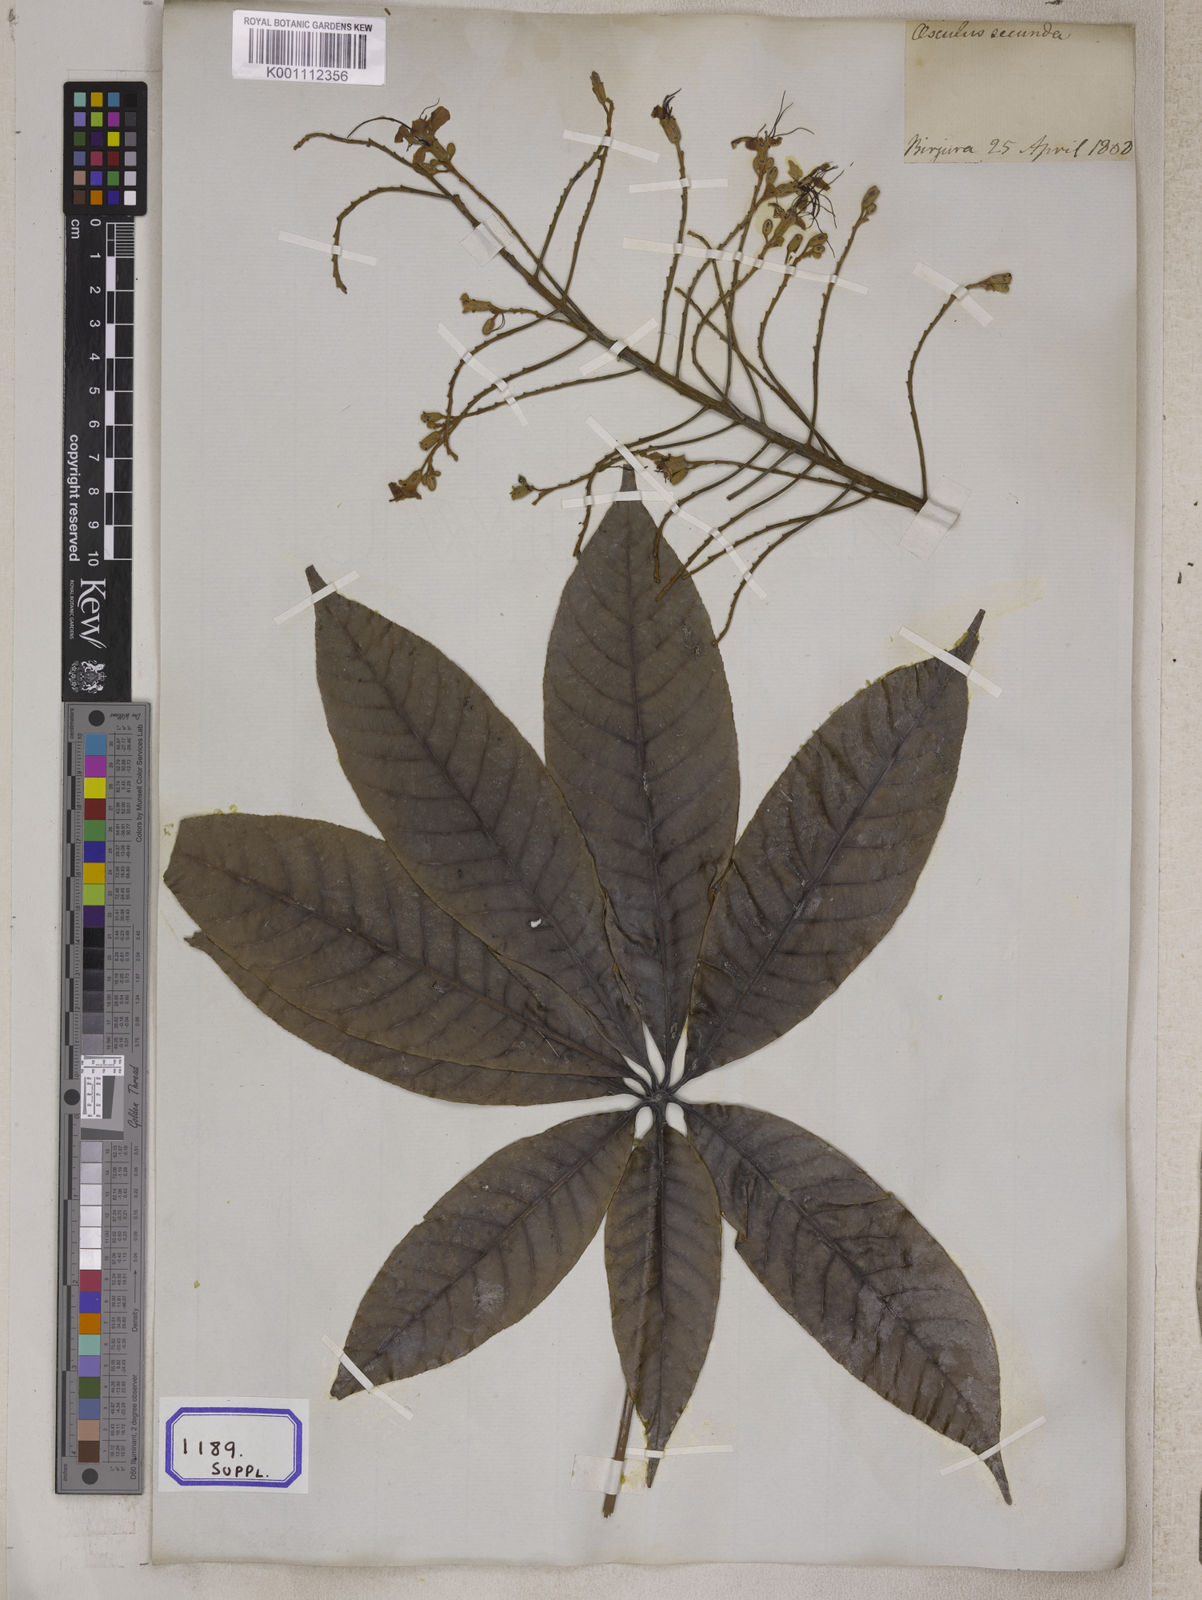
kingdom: Plantae
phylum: Tracheophyta
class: Magnoliopsida
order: Sapindales
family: Sapindaceae
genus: Aesculus
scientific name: Aesculus
